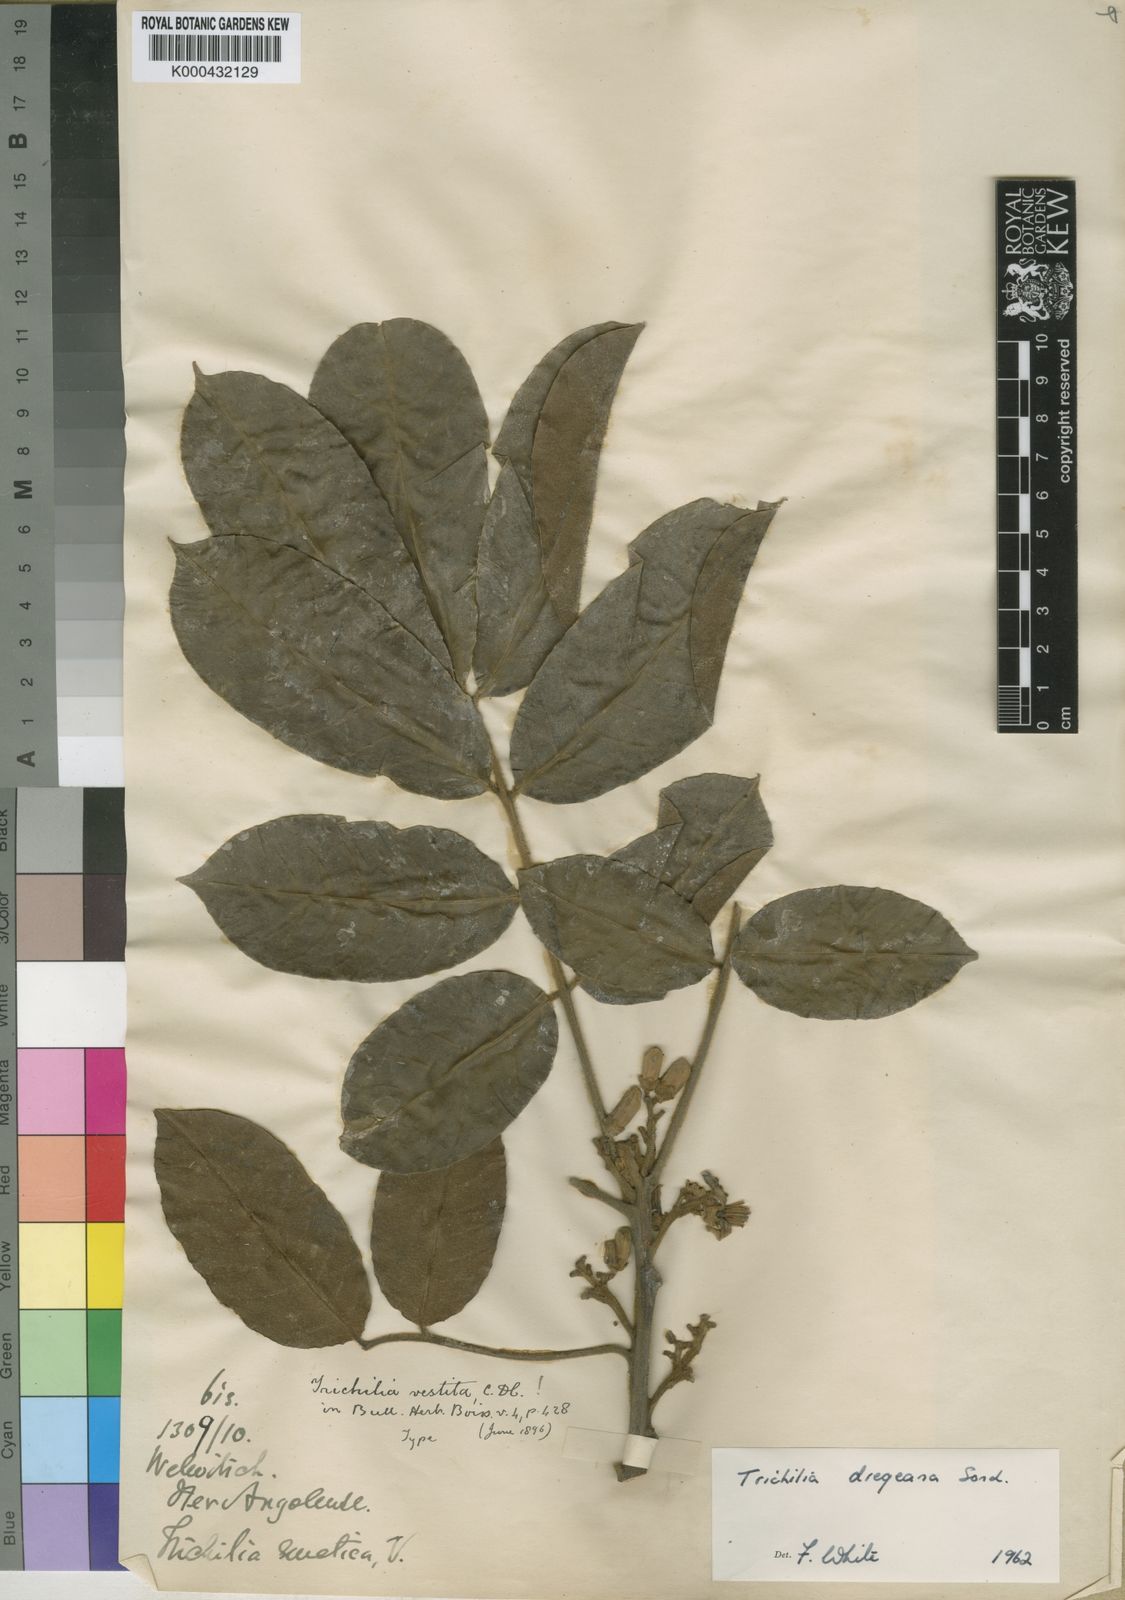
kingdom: Plantae
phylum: Tracheophyta
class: Magnoliopsida
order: Sapindales
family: Meliaceae
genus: Trichilia
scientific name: Trichilia dregeana
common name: Christmas-bells
